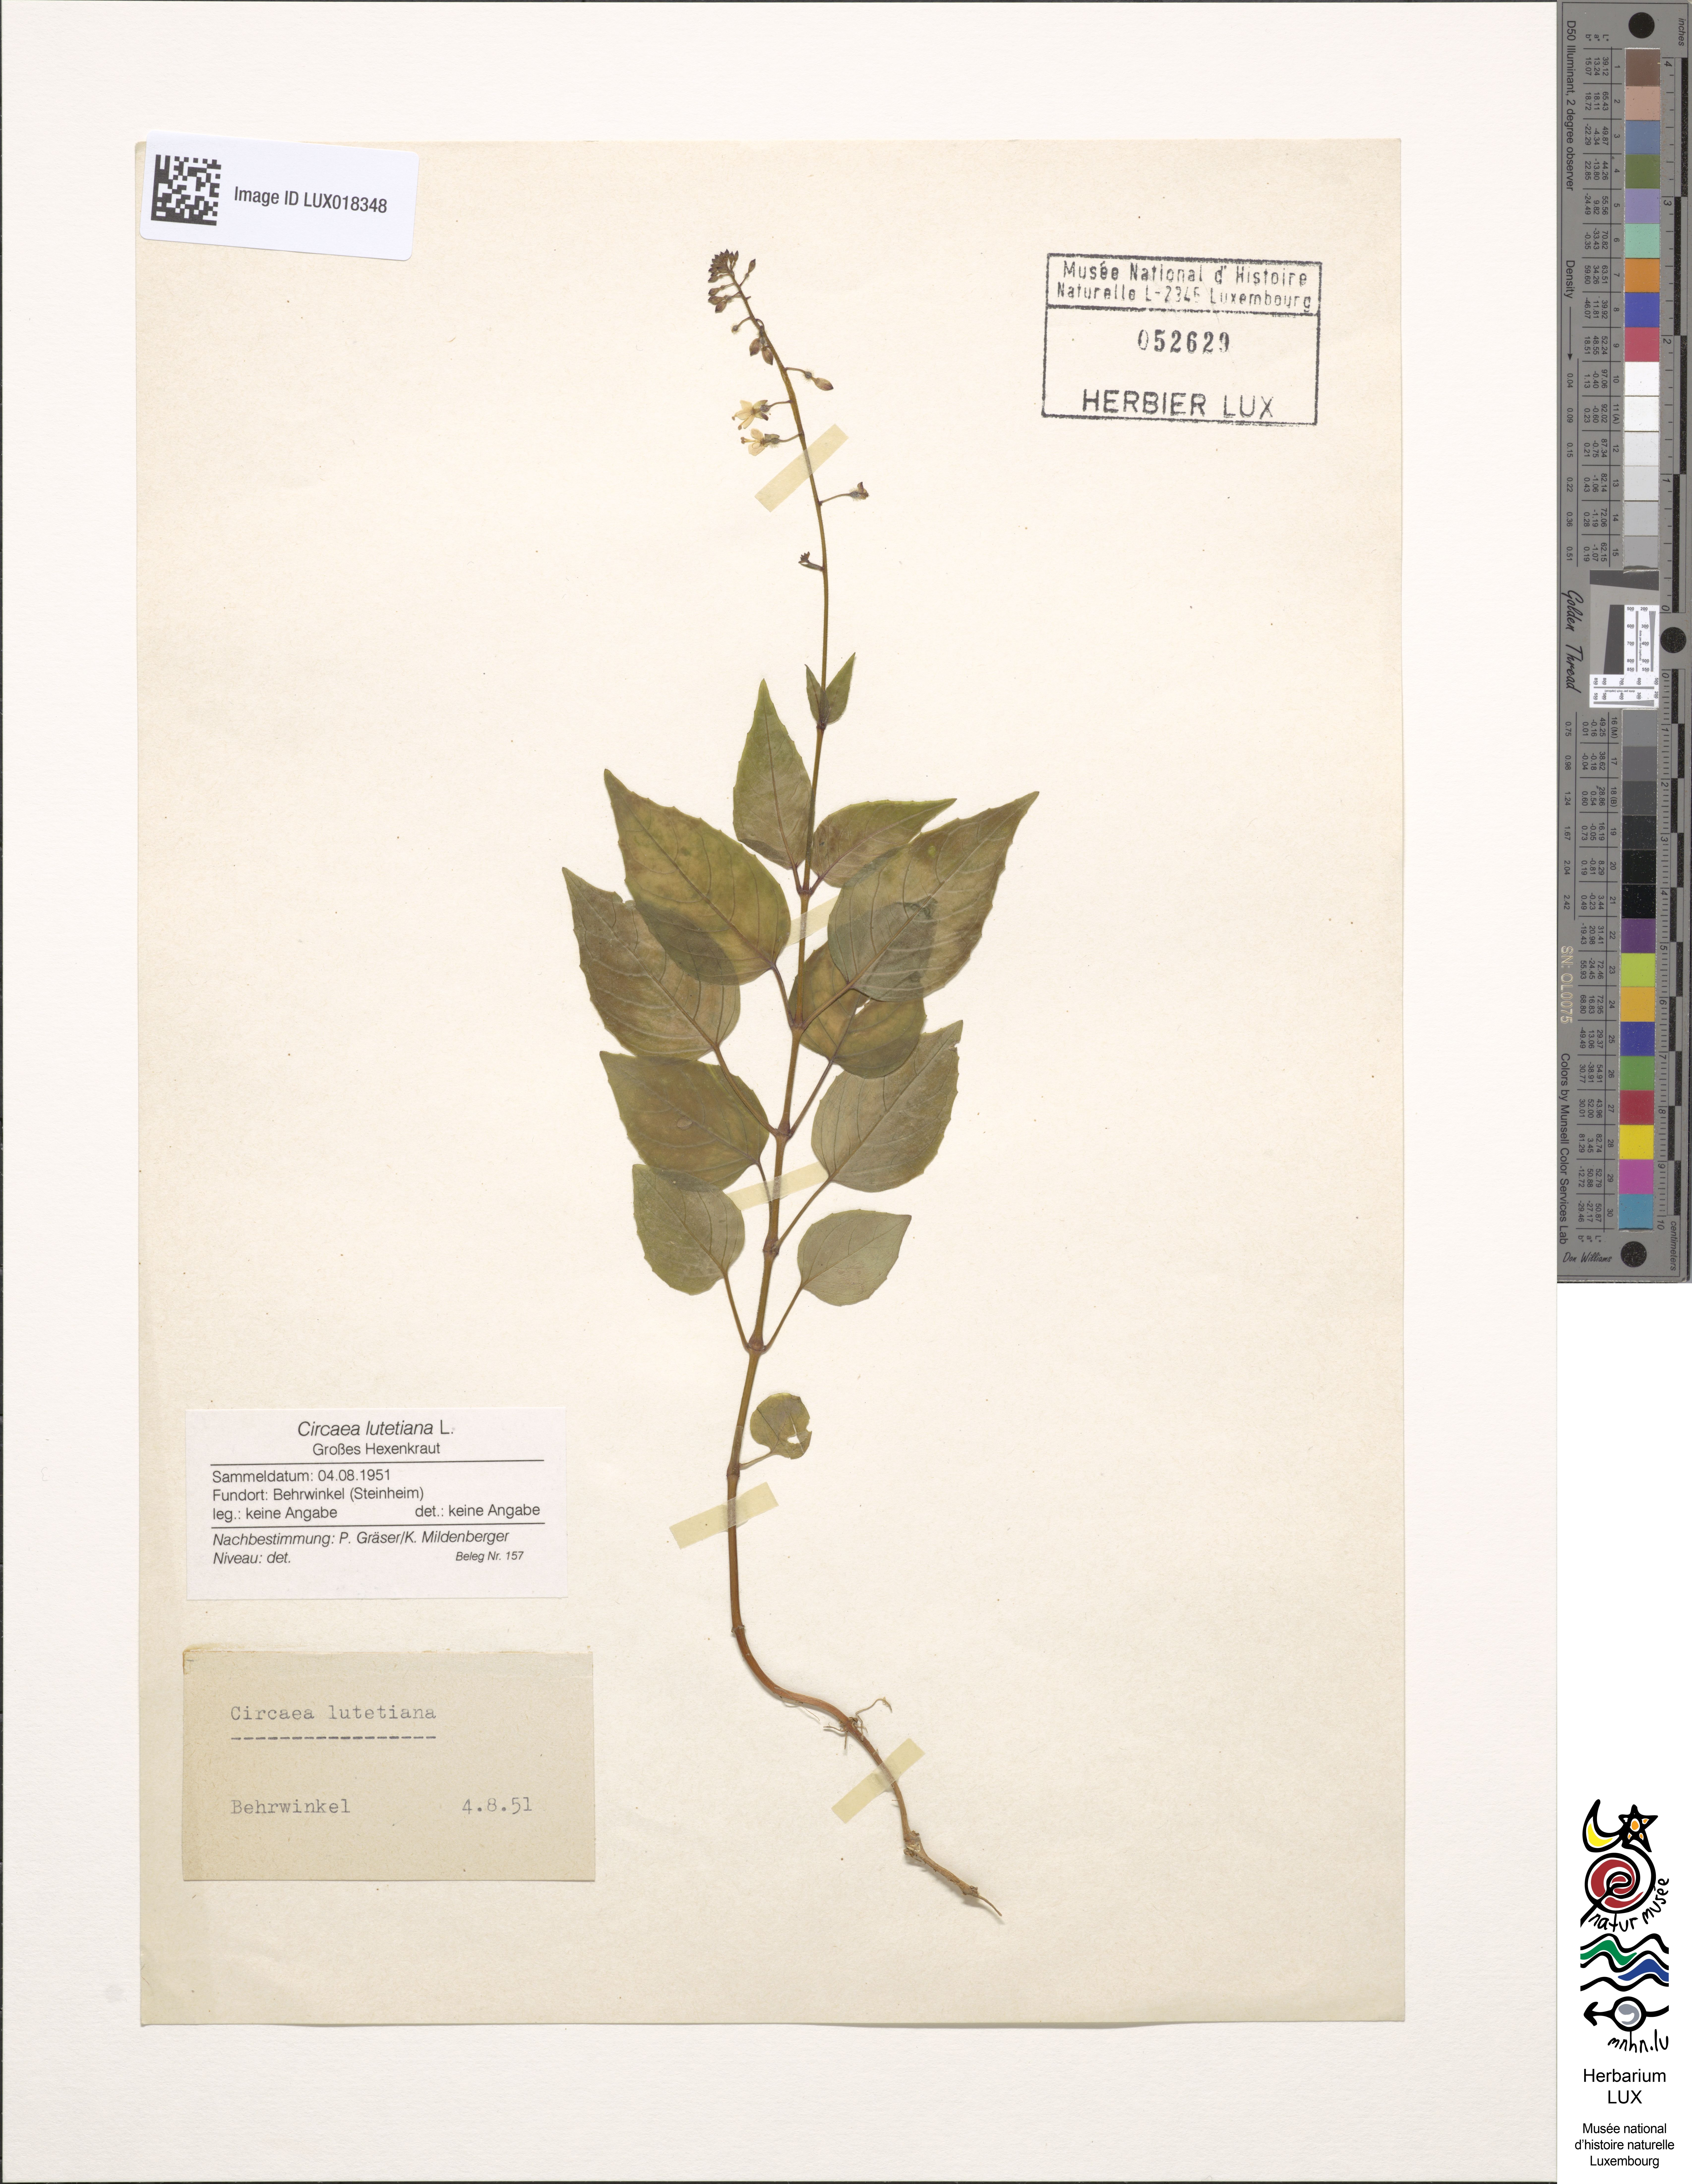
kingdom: Plantae
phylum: Tracheophyta
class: Magnoliopsida
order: Myrtales
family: Onagraceae
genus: Circaea
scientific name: Circaea lutetiana
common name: Enchanter's-nightshade
